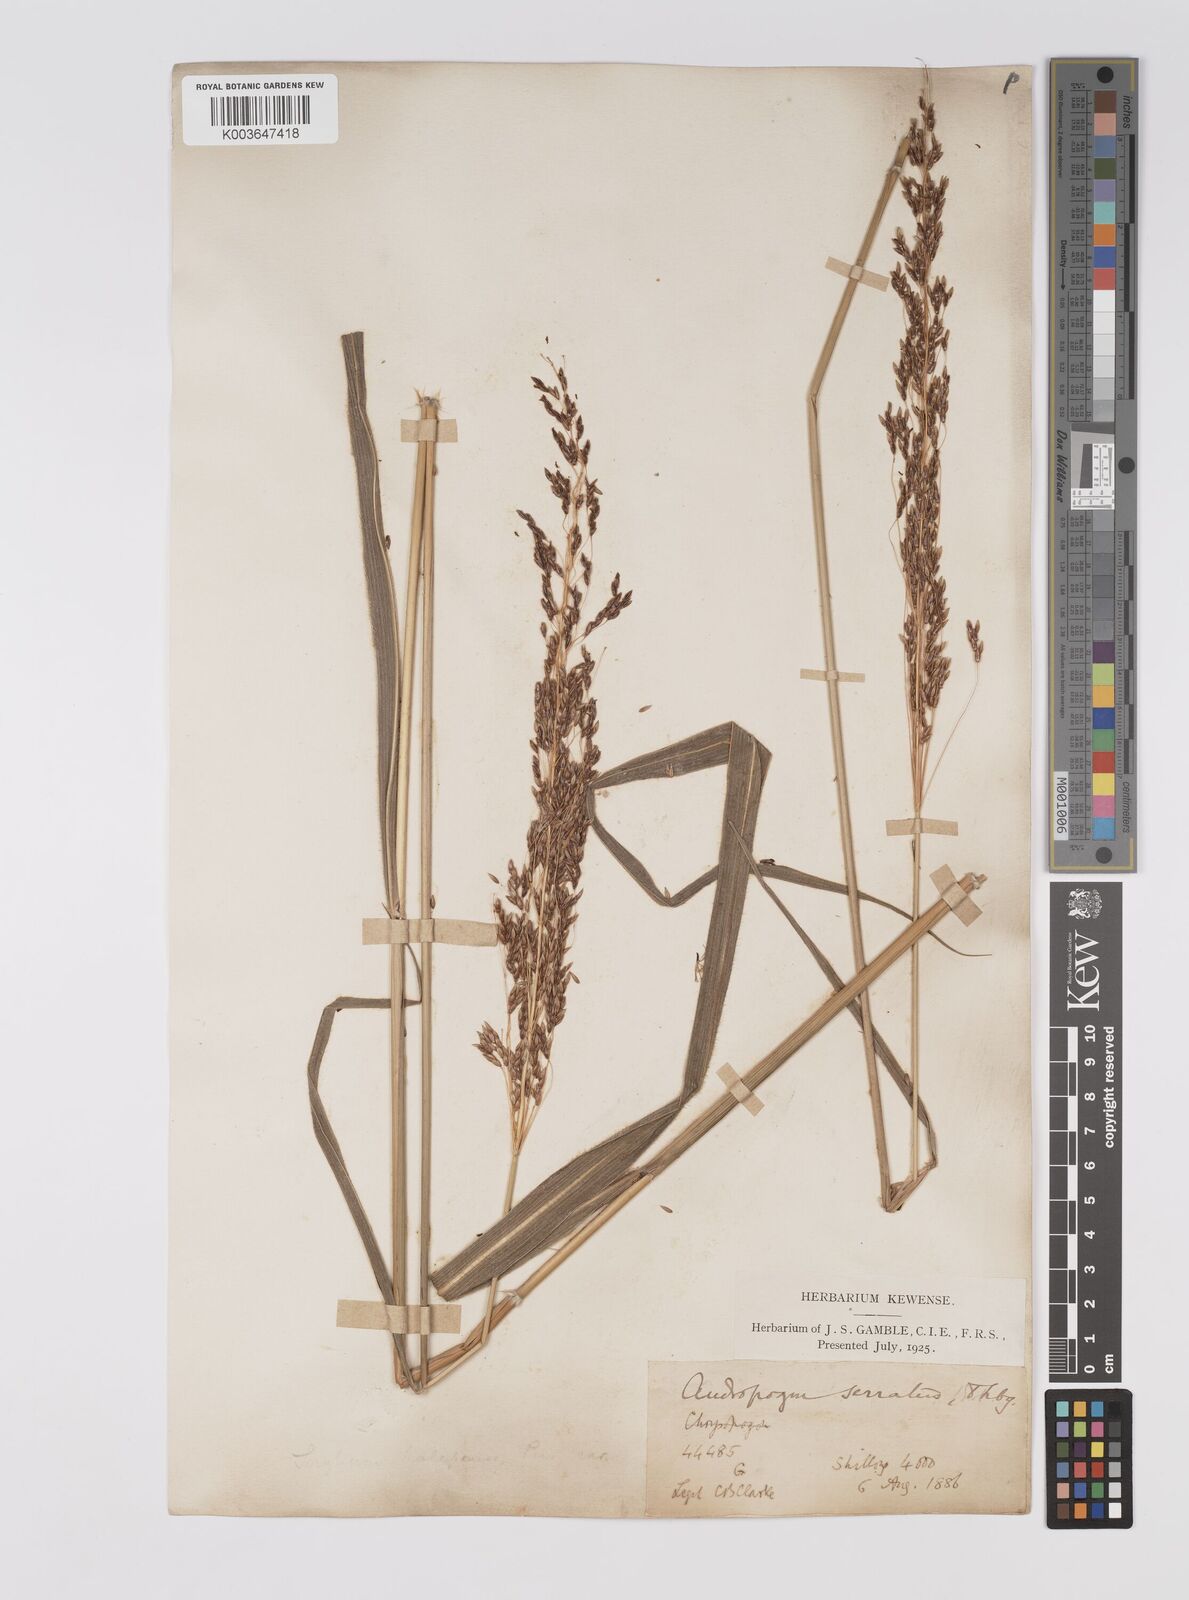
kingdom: Plantae
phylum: Tracheophyta
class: Liliopsida
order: Poales
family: Poaceae
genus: Sorghum
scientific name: Sorghum nitidum
